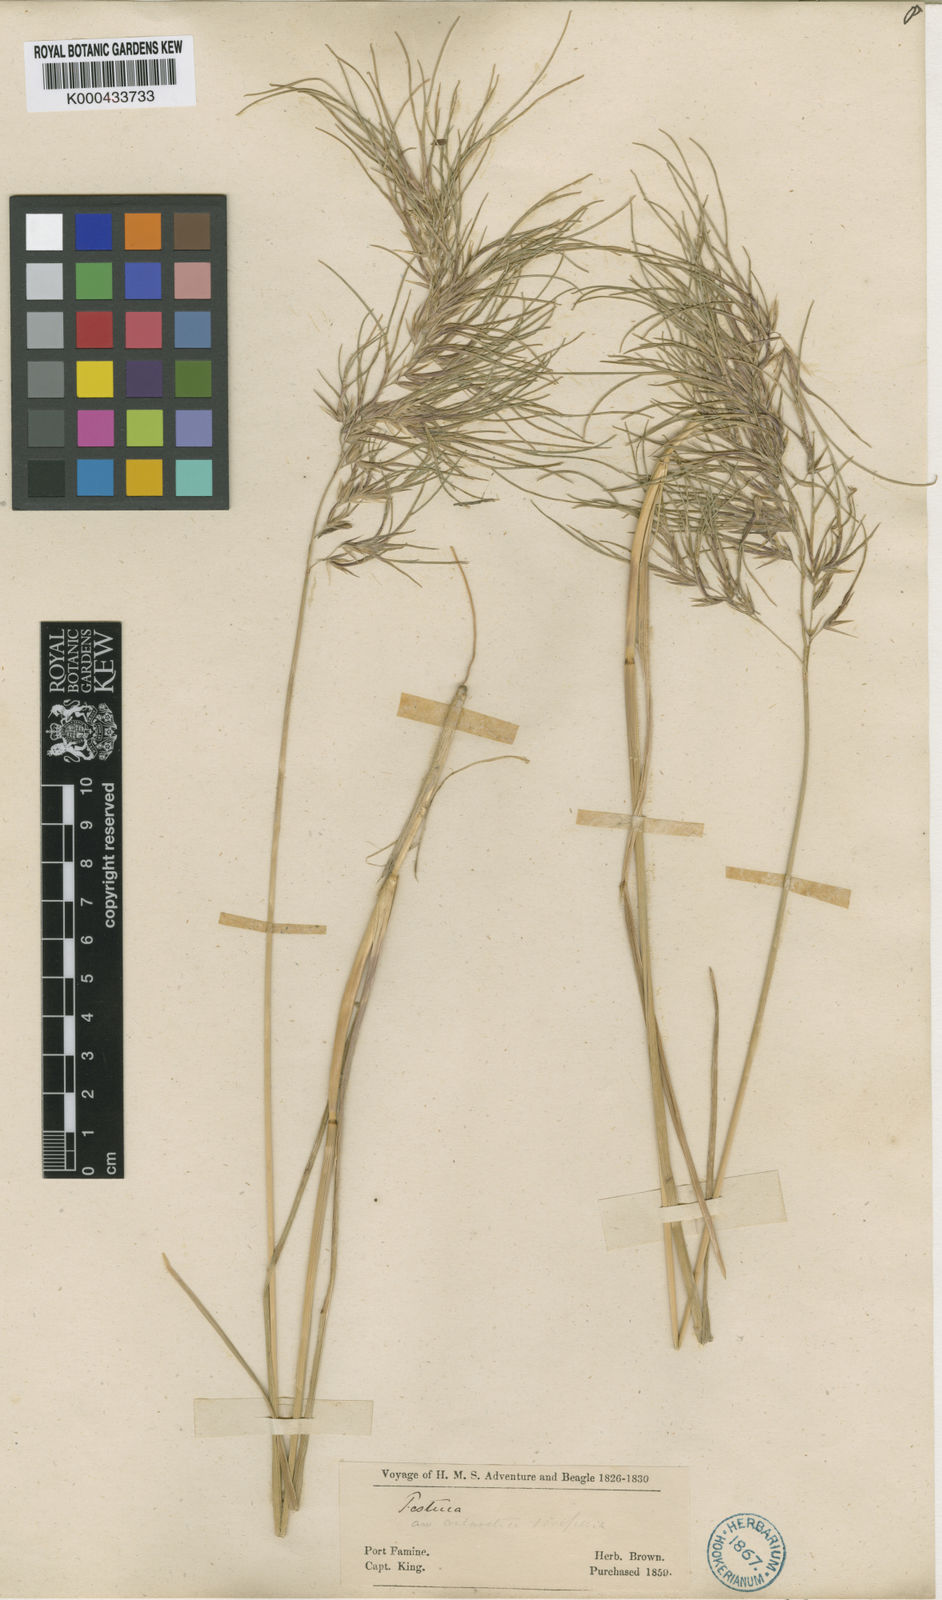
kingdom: Plantae
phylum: Tracheophyta
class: Liliopsida
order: Poales
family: Poaceae
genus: Poa
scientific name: Poa alopecurus
